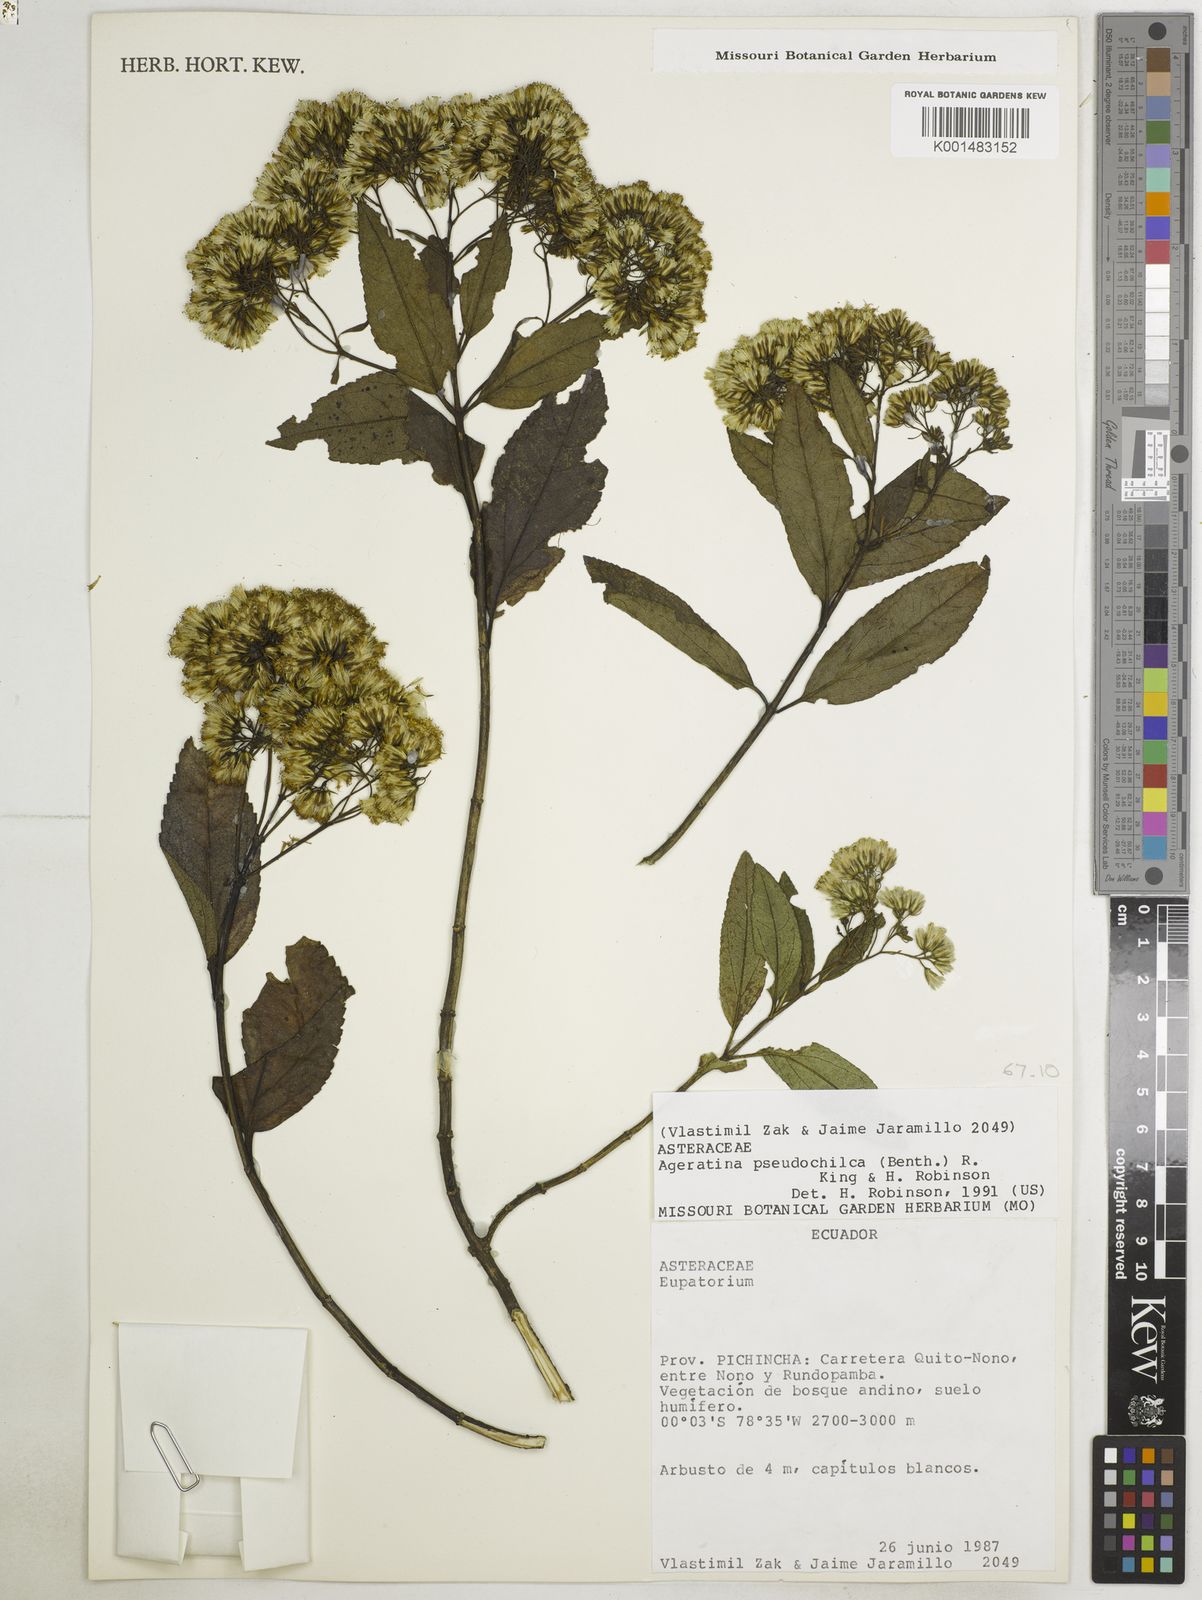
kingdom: Plantae
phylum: Tracheophyta
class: Magnoliopsida
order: Asterales
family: Asteraceae
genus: Ageratina
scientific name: Ageratina pseudochilca
